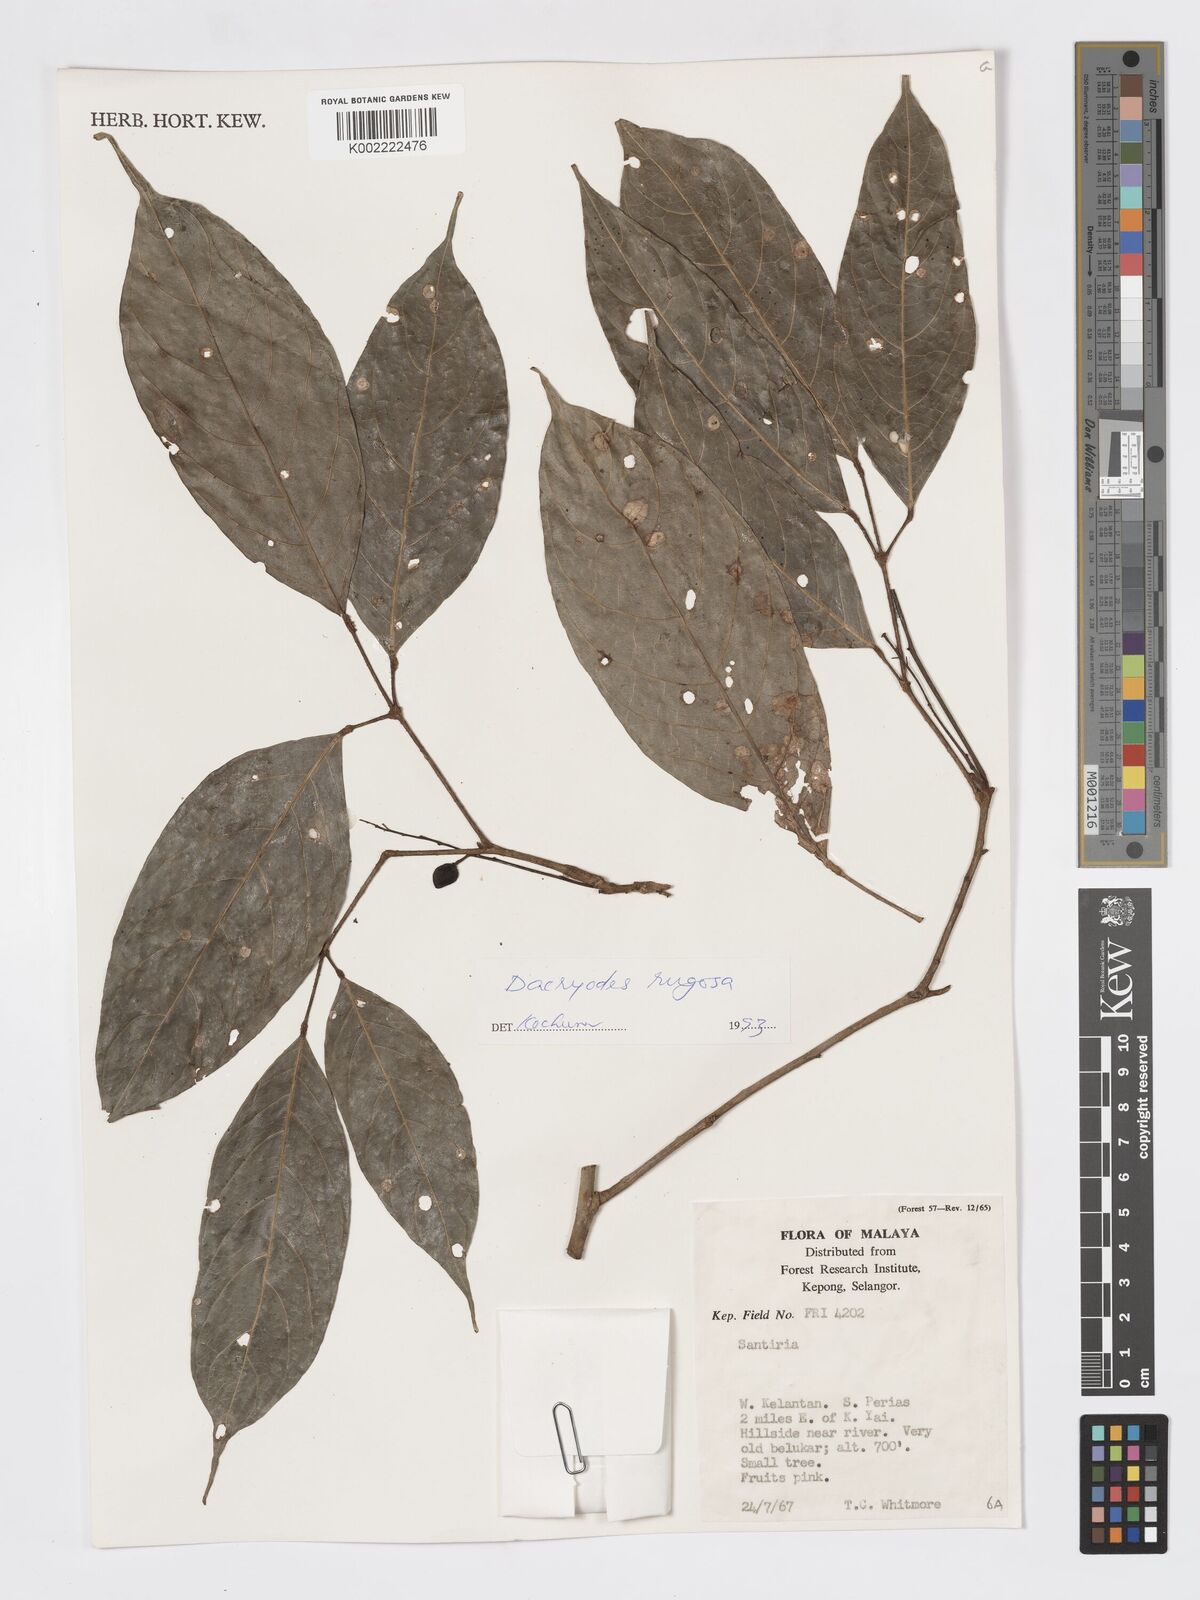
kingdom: Plantae
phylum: Tracheophyta
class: Magnoliopsida
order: Sapindales
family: Burseraceae
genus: Dacryodes
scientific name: Dacryodes rugosa
